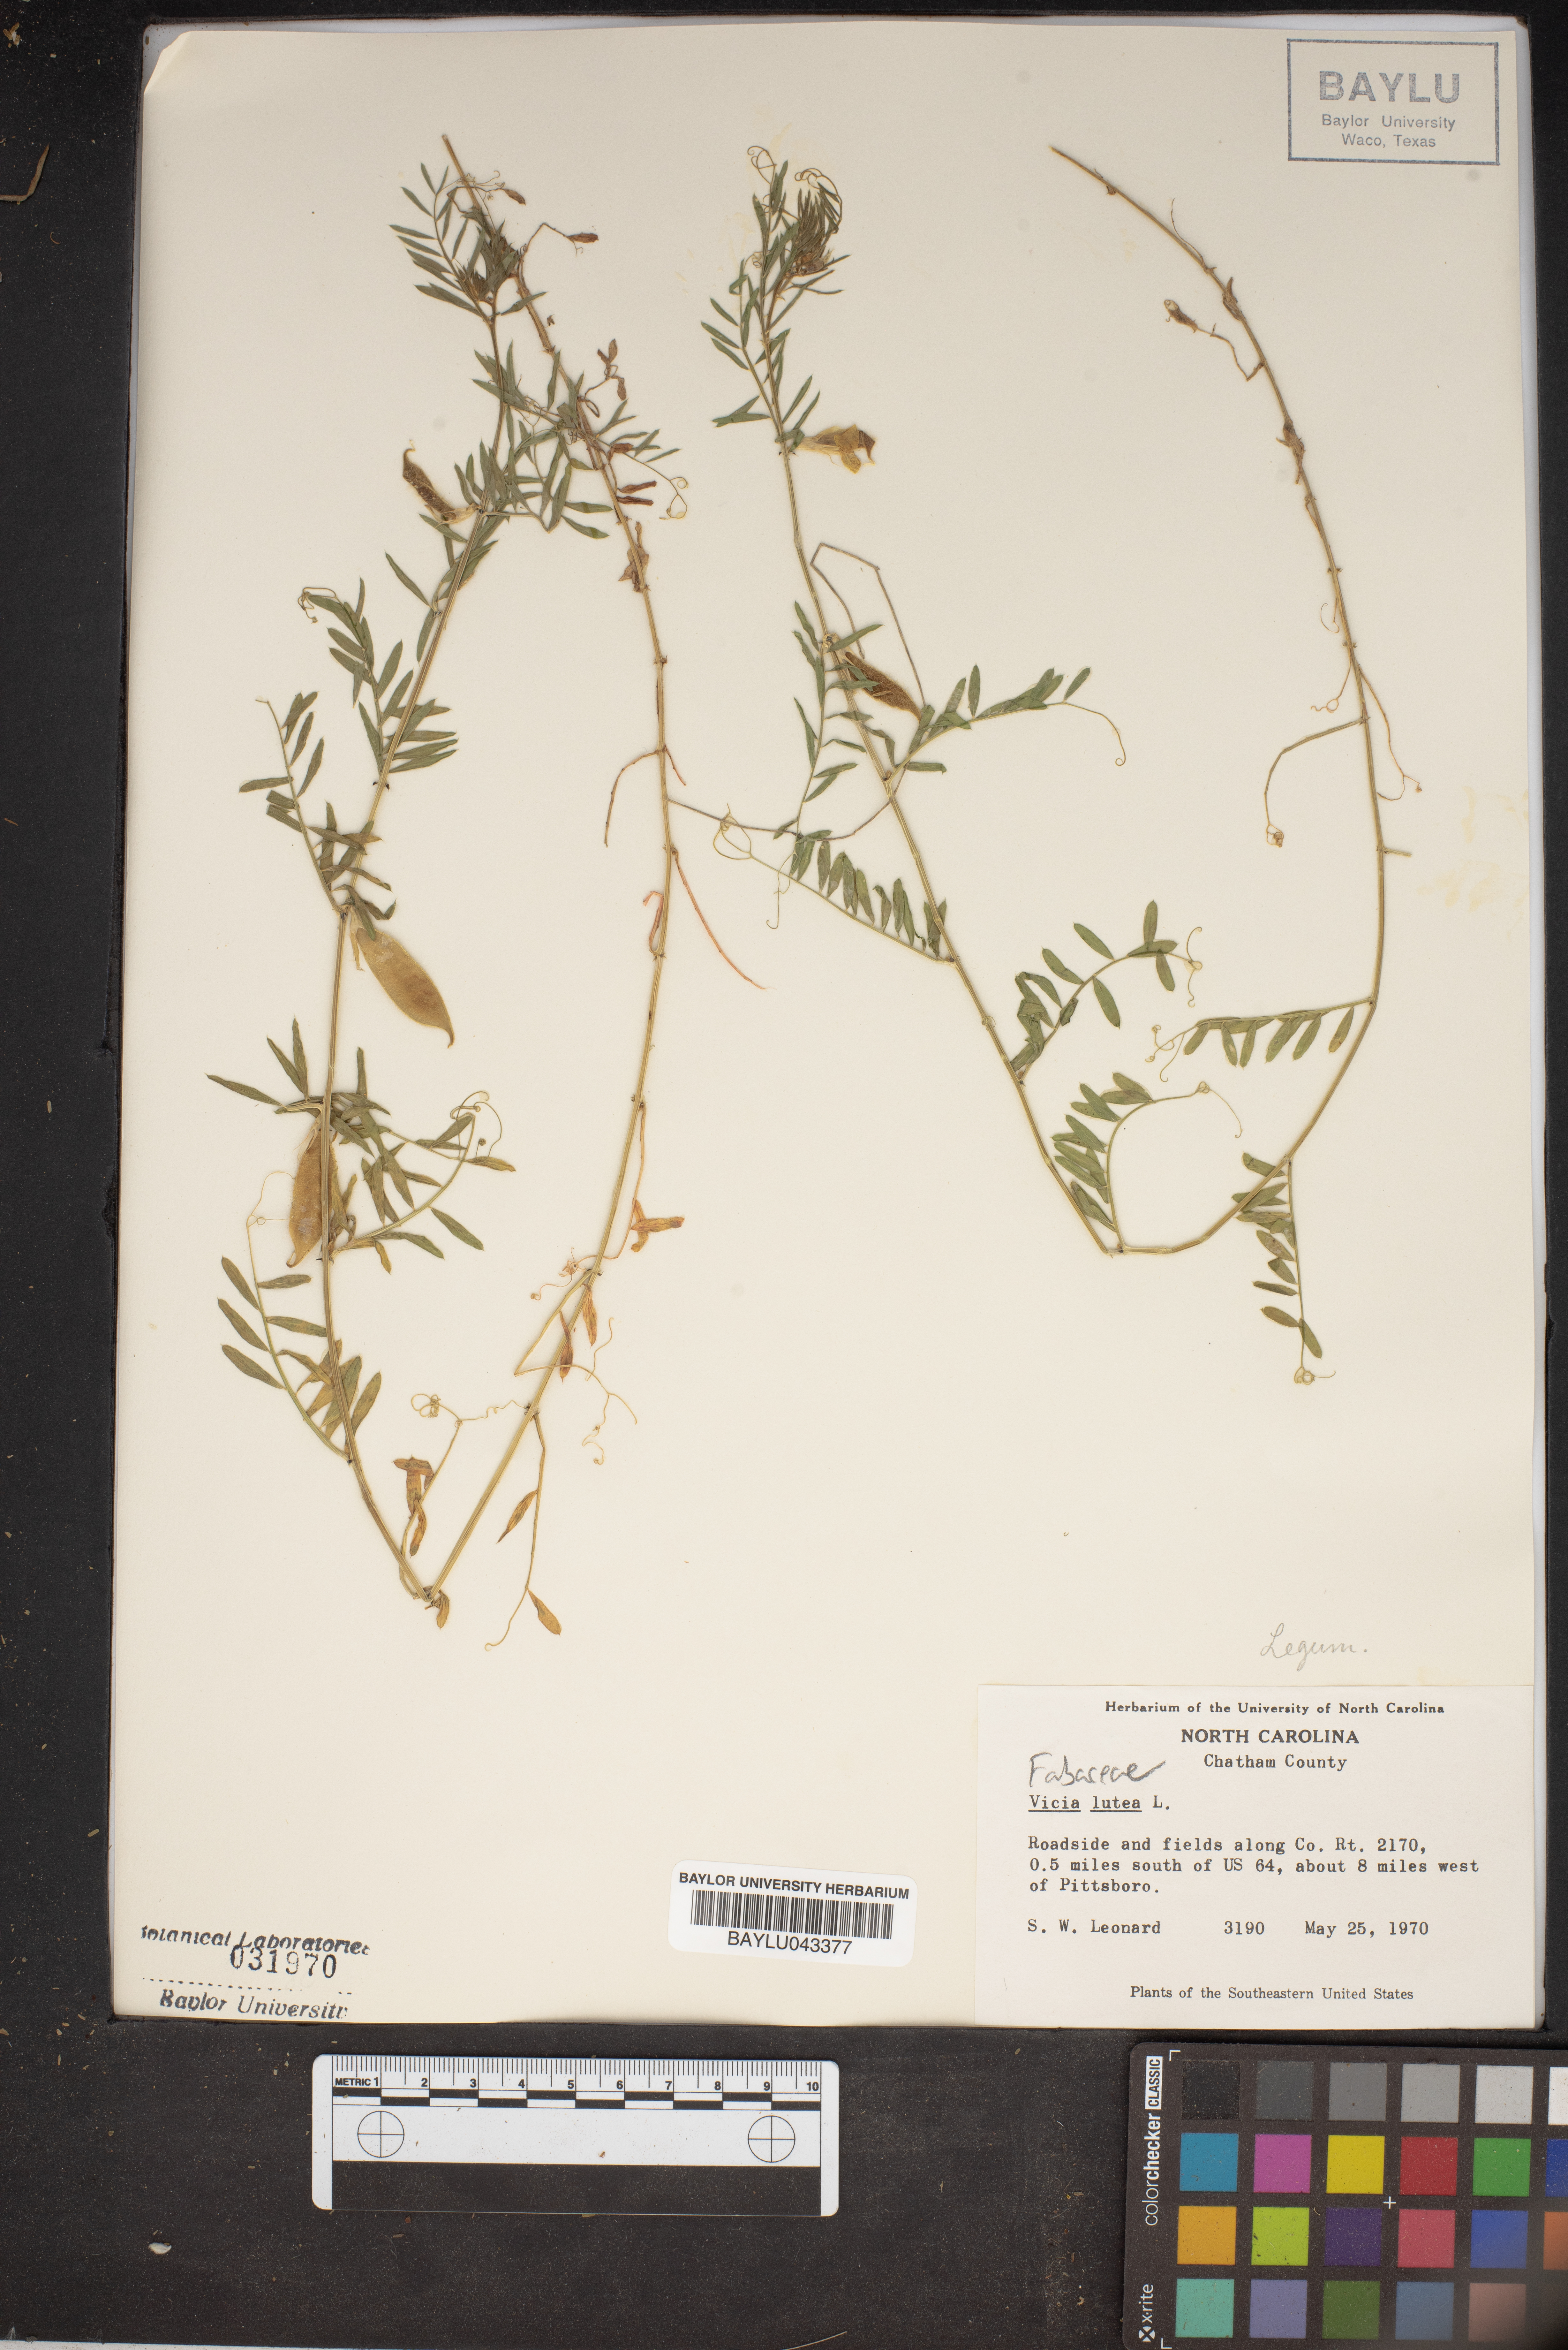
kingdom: Plantae
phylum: Tracheophyta
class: Magnoliopsida
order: Fabales
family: Fabaceae
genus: Vicia
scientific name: Vicia lutea
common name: Smooth yellow vetch
